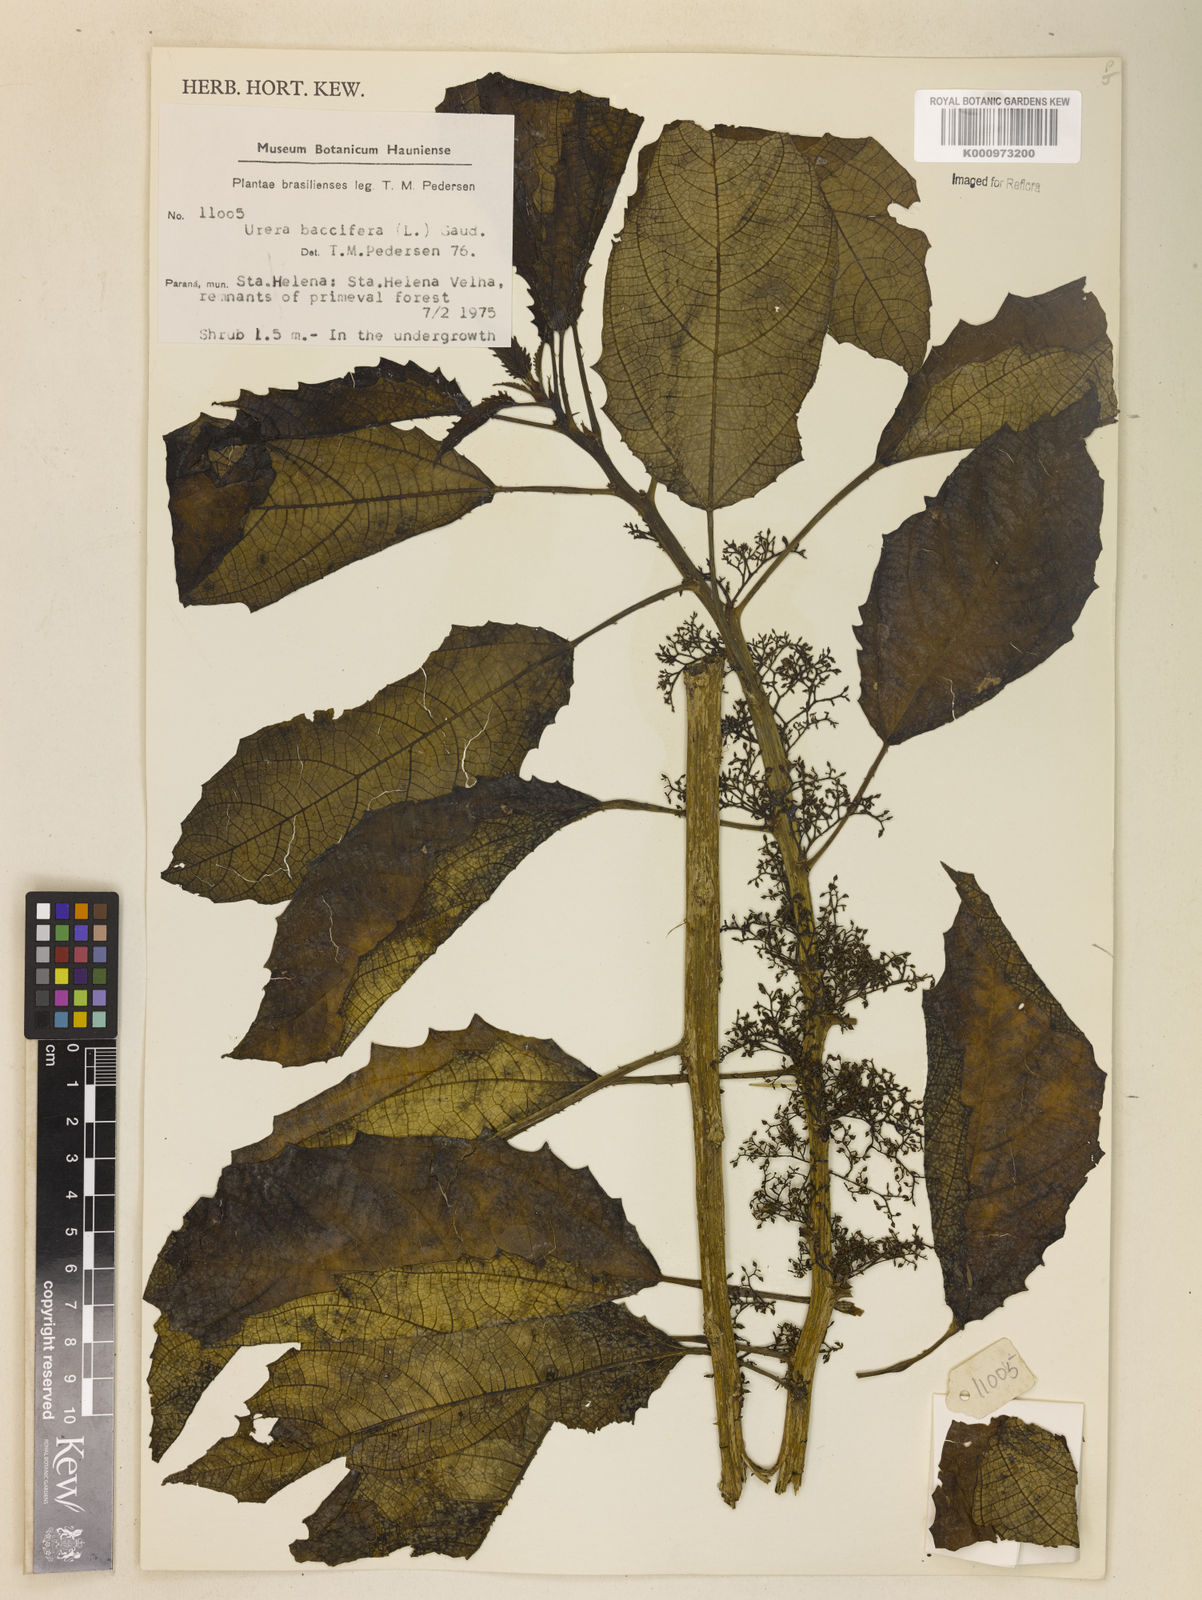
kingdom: Plantae
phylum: Tracheophyta
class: Magnoliopsida
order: Rosales
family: Urticaceae
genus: Urera
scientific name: Urera baccifera
